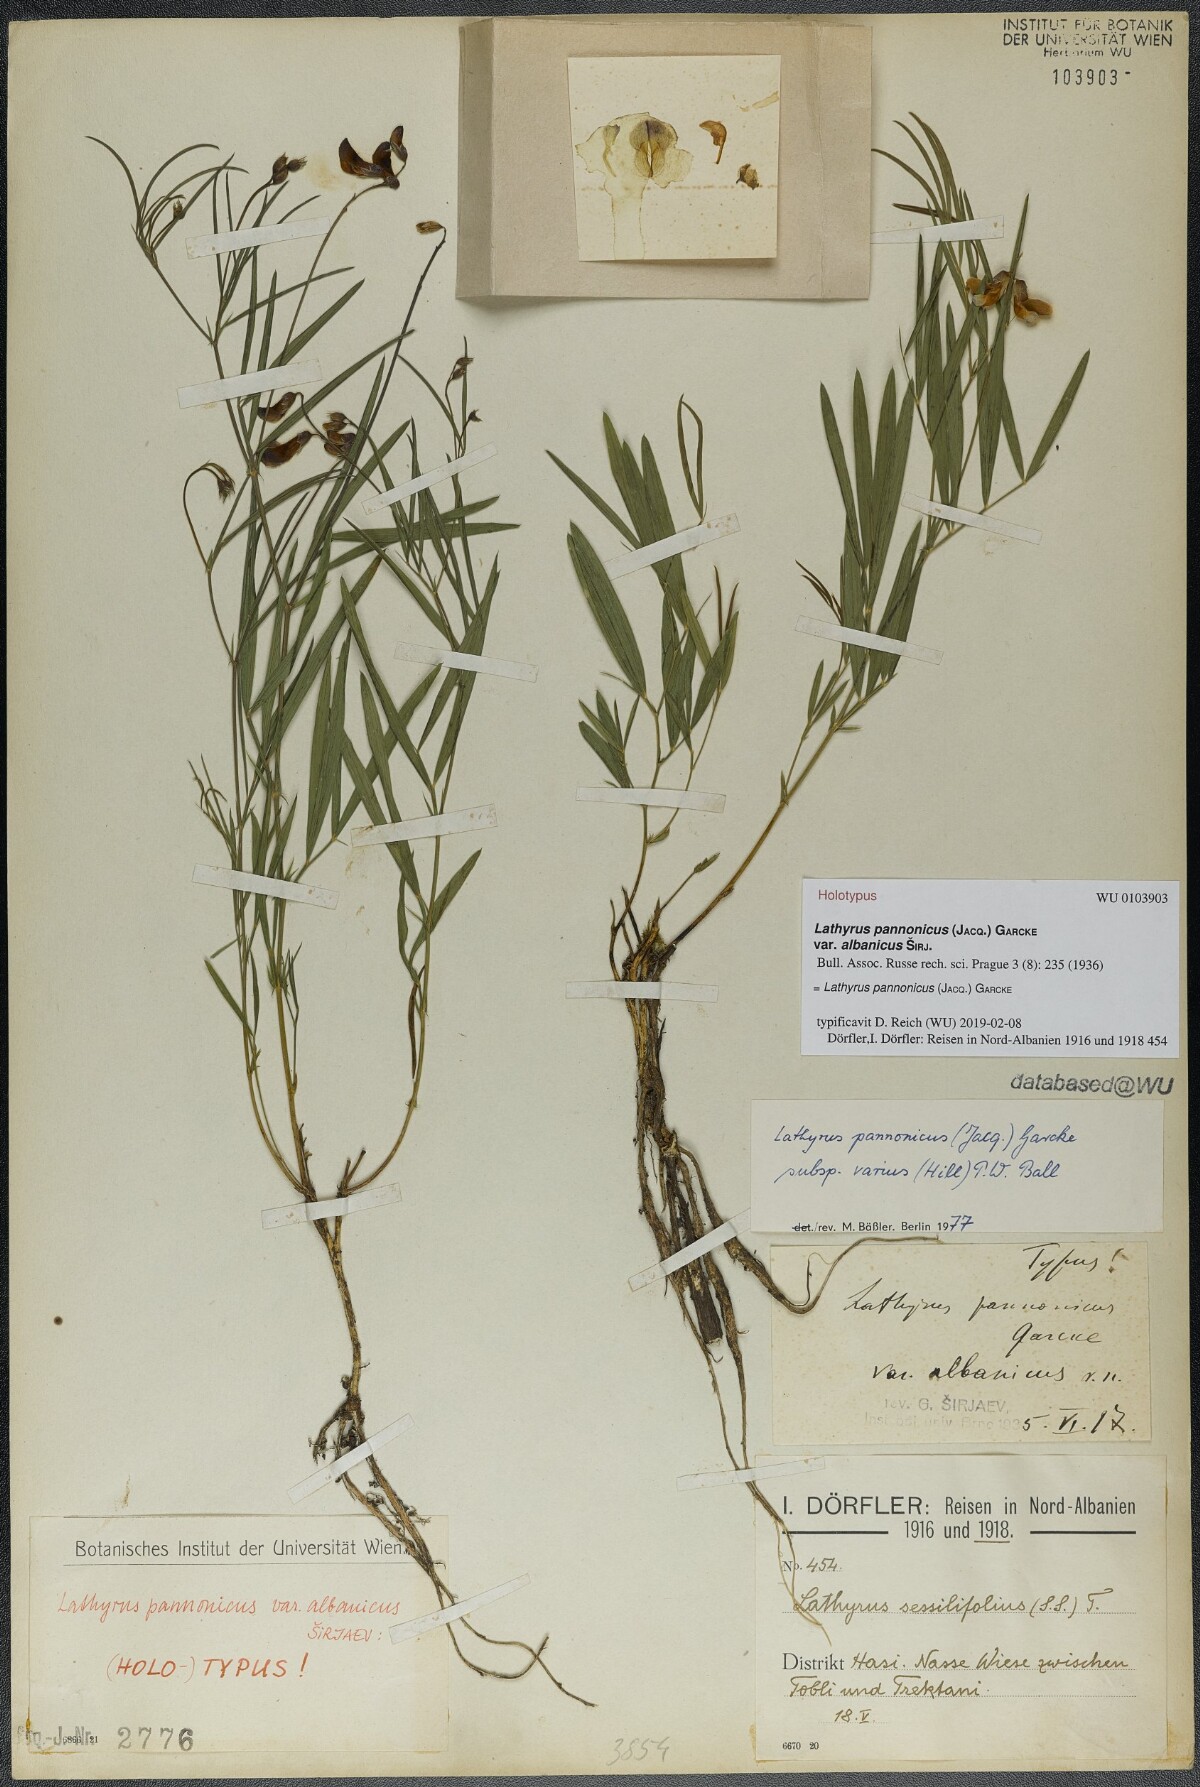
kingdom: Plantae
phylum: Tracheophyta
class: Magnoliopsida
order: Fabales
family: Fabaceae
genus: Lathyrus
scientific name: Lathyrus pannonicus
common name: Pea
